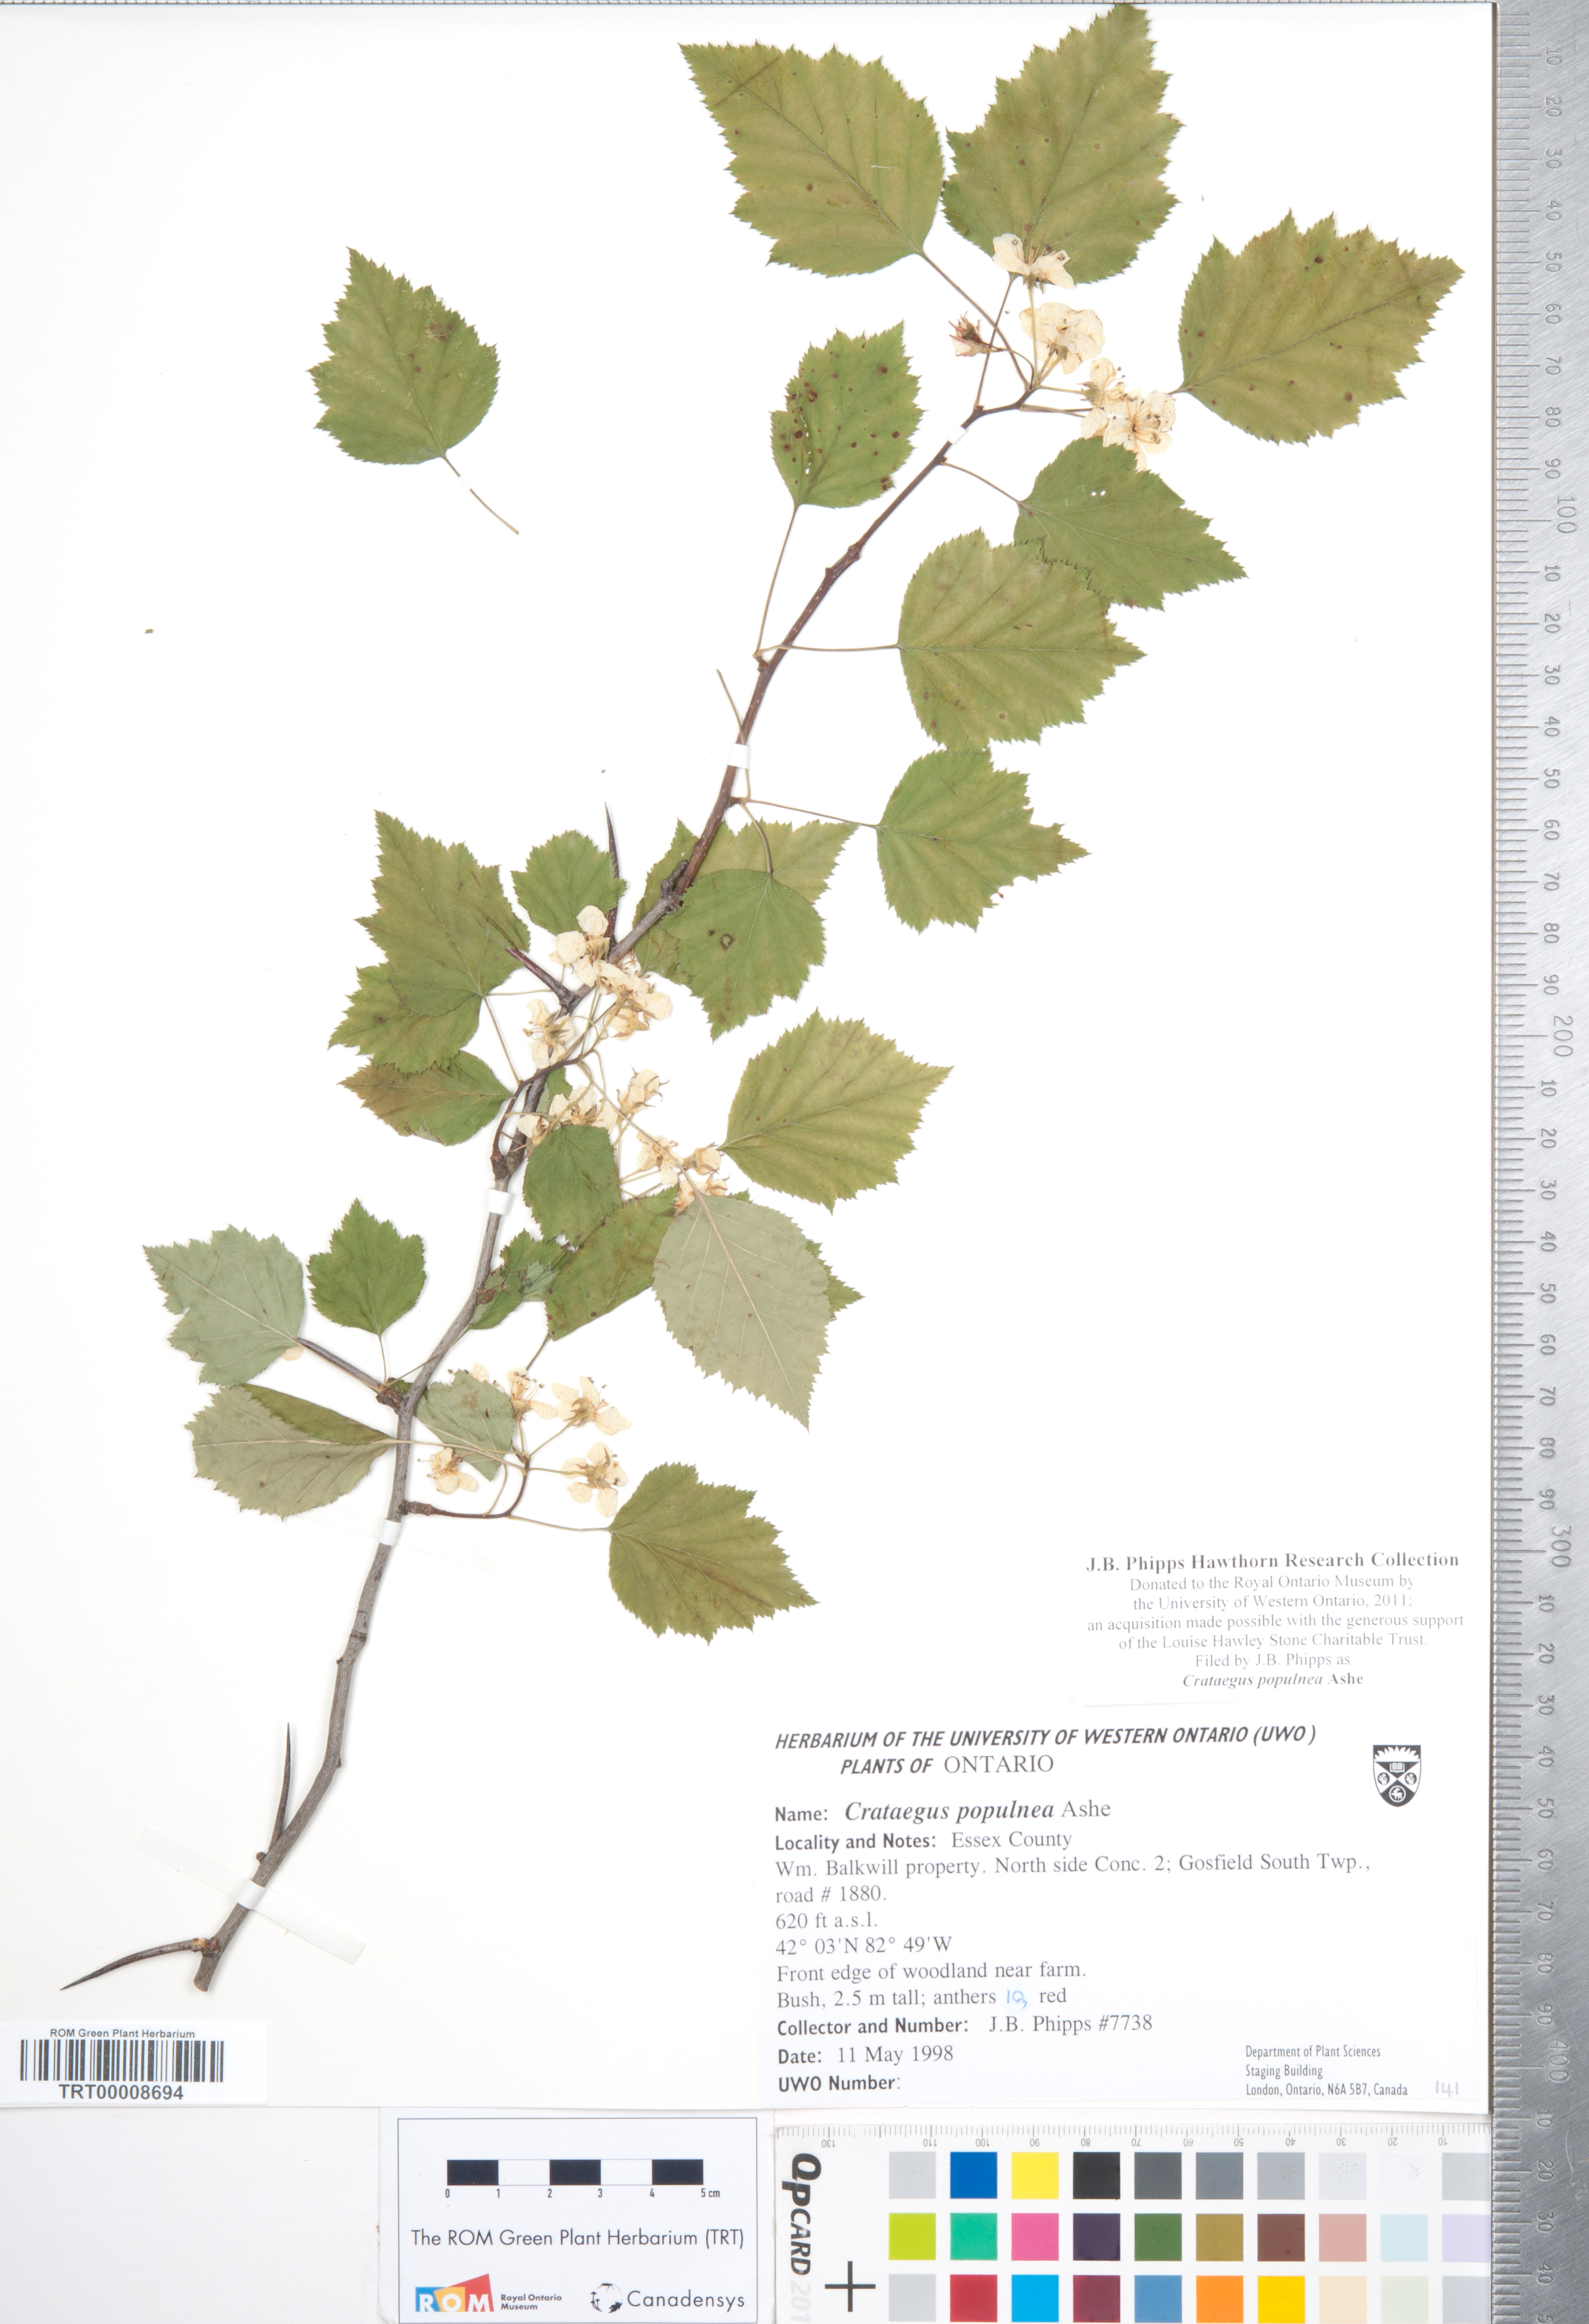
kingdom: Plantae
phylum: Tracheophyta
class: Magnoliopsida
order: Rosales
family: Rosaceae
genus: Crataegus
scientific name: Crataegus populnea
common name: Adorned hawthorn
